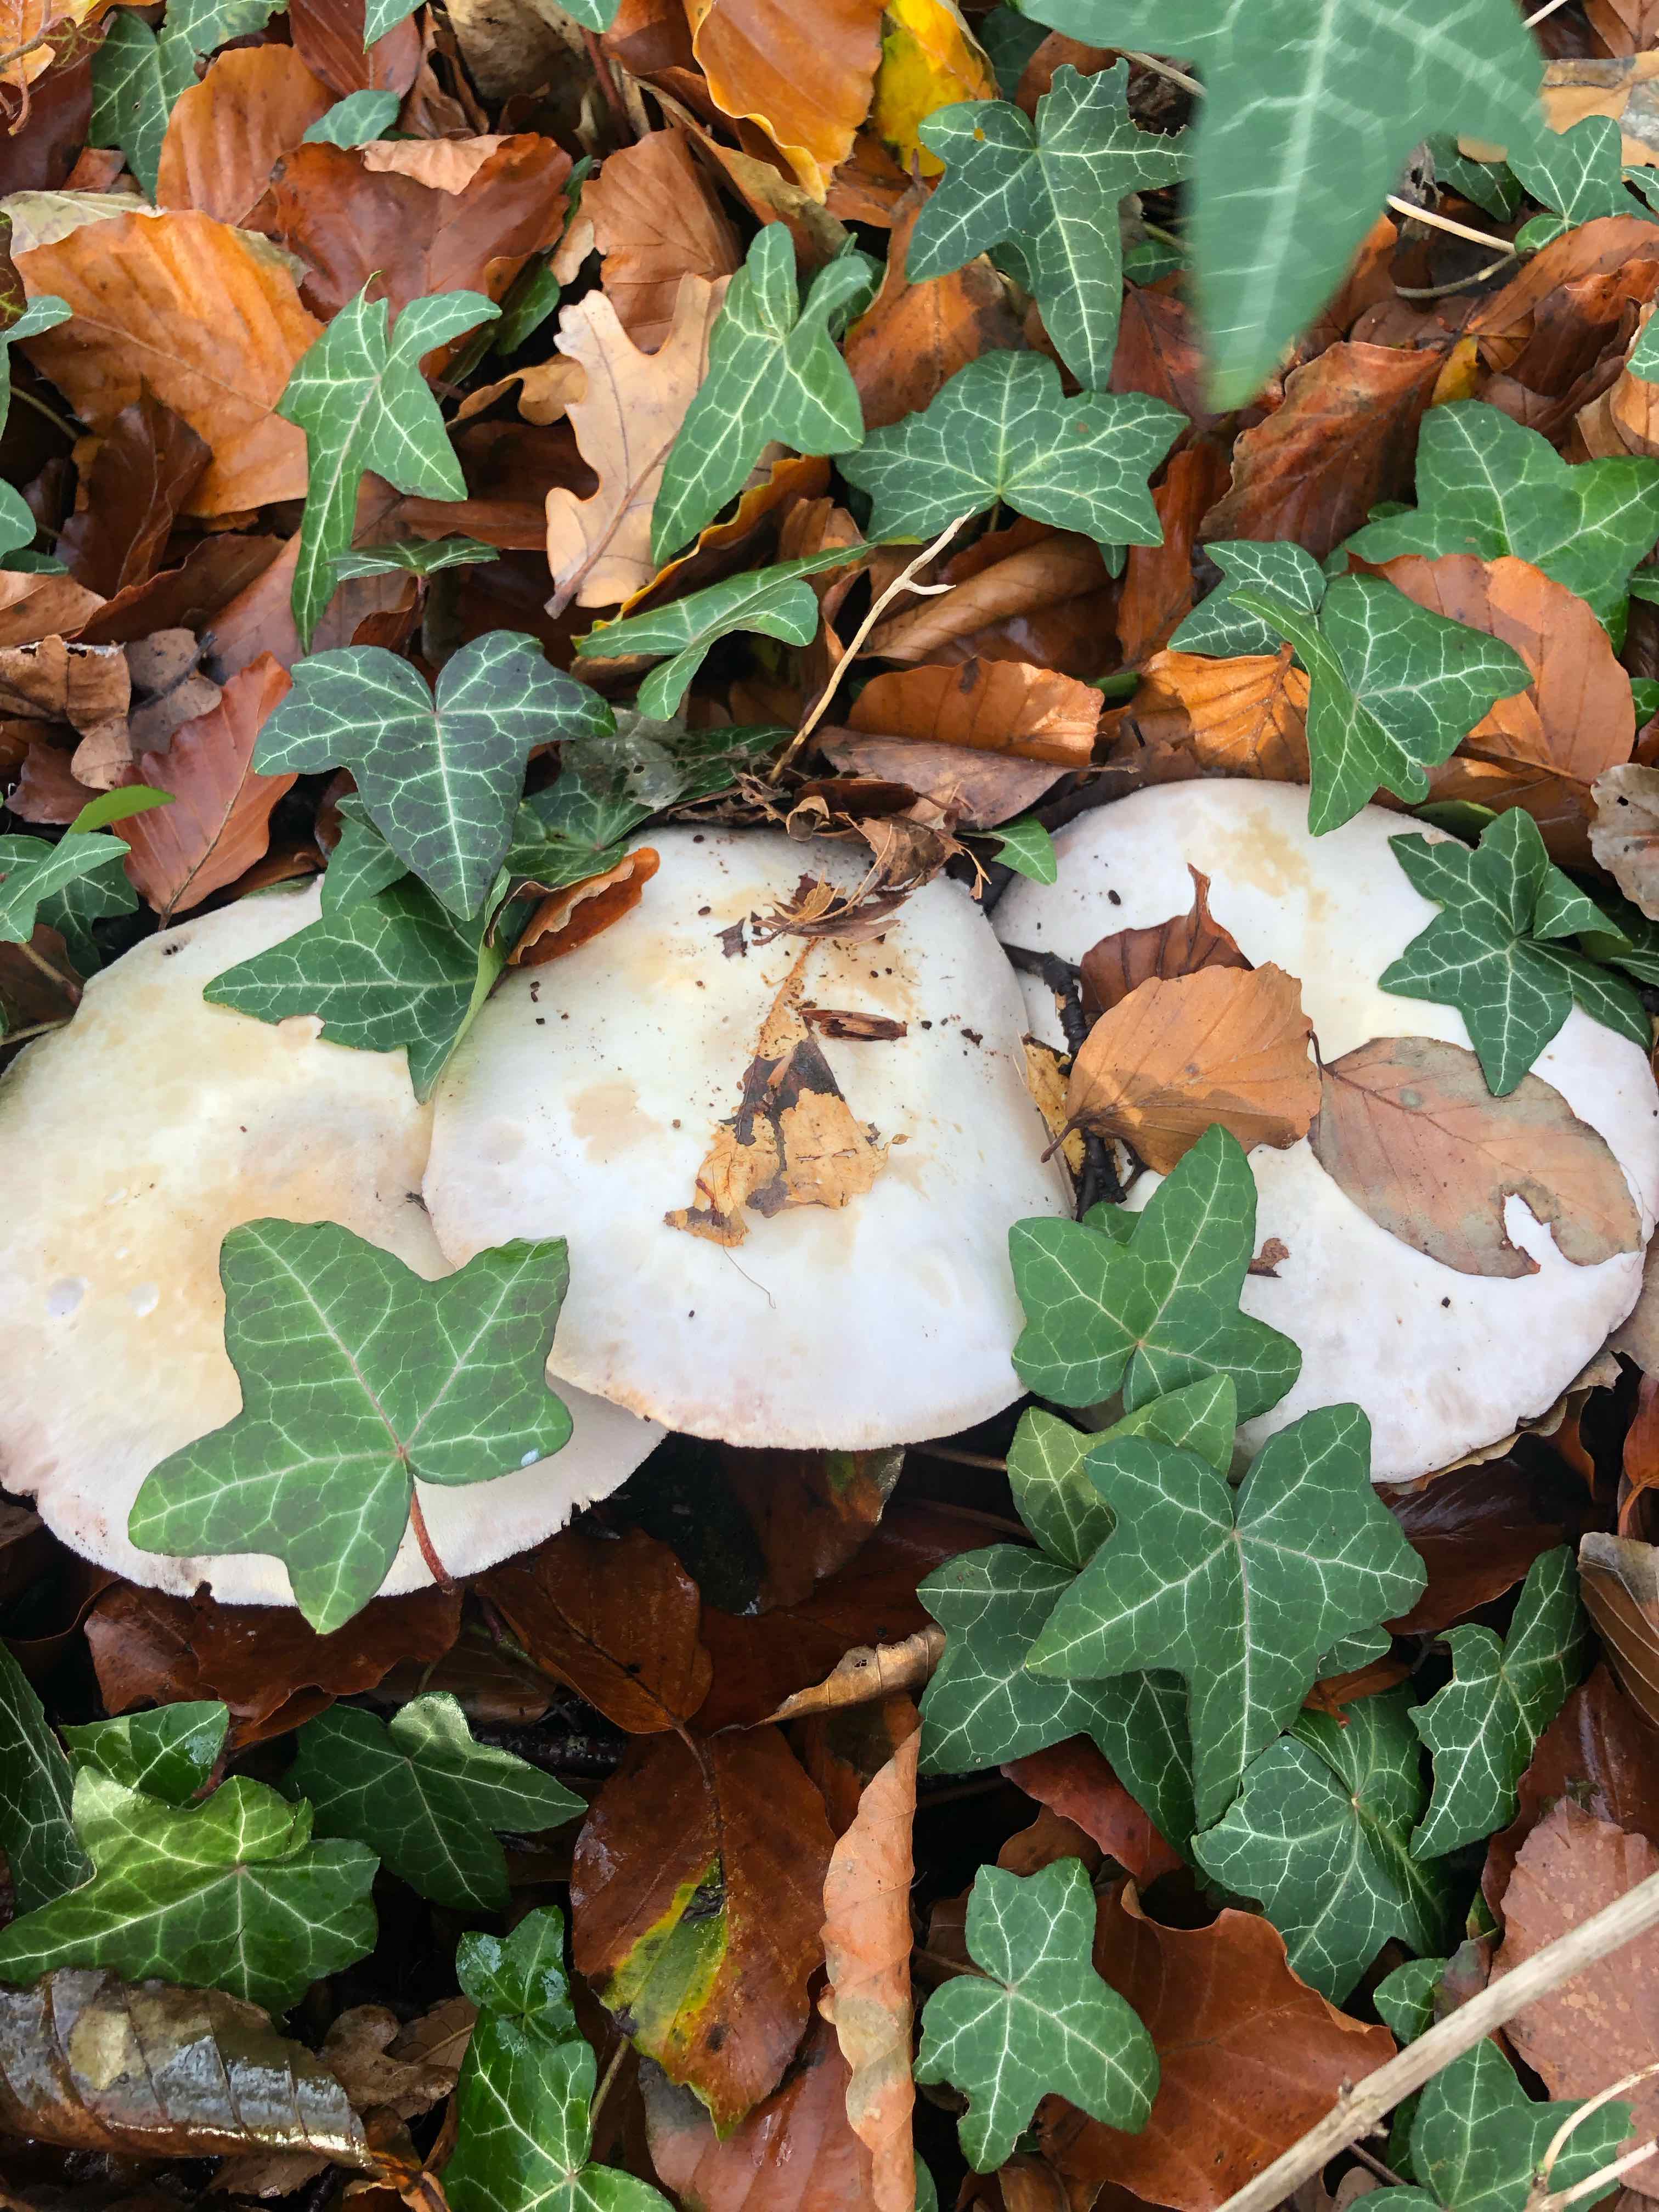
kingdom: Fungi
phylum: Basidiomycota
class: Agaricomycetes
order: Agaricales
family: Agaricaceae
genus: Agaricus
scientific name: Agaricus sylvicola
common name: gulhvid champignon
